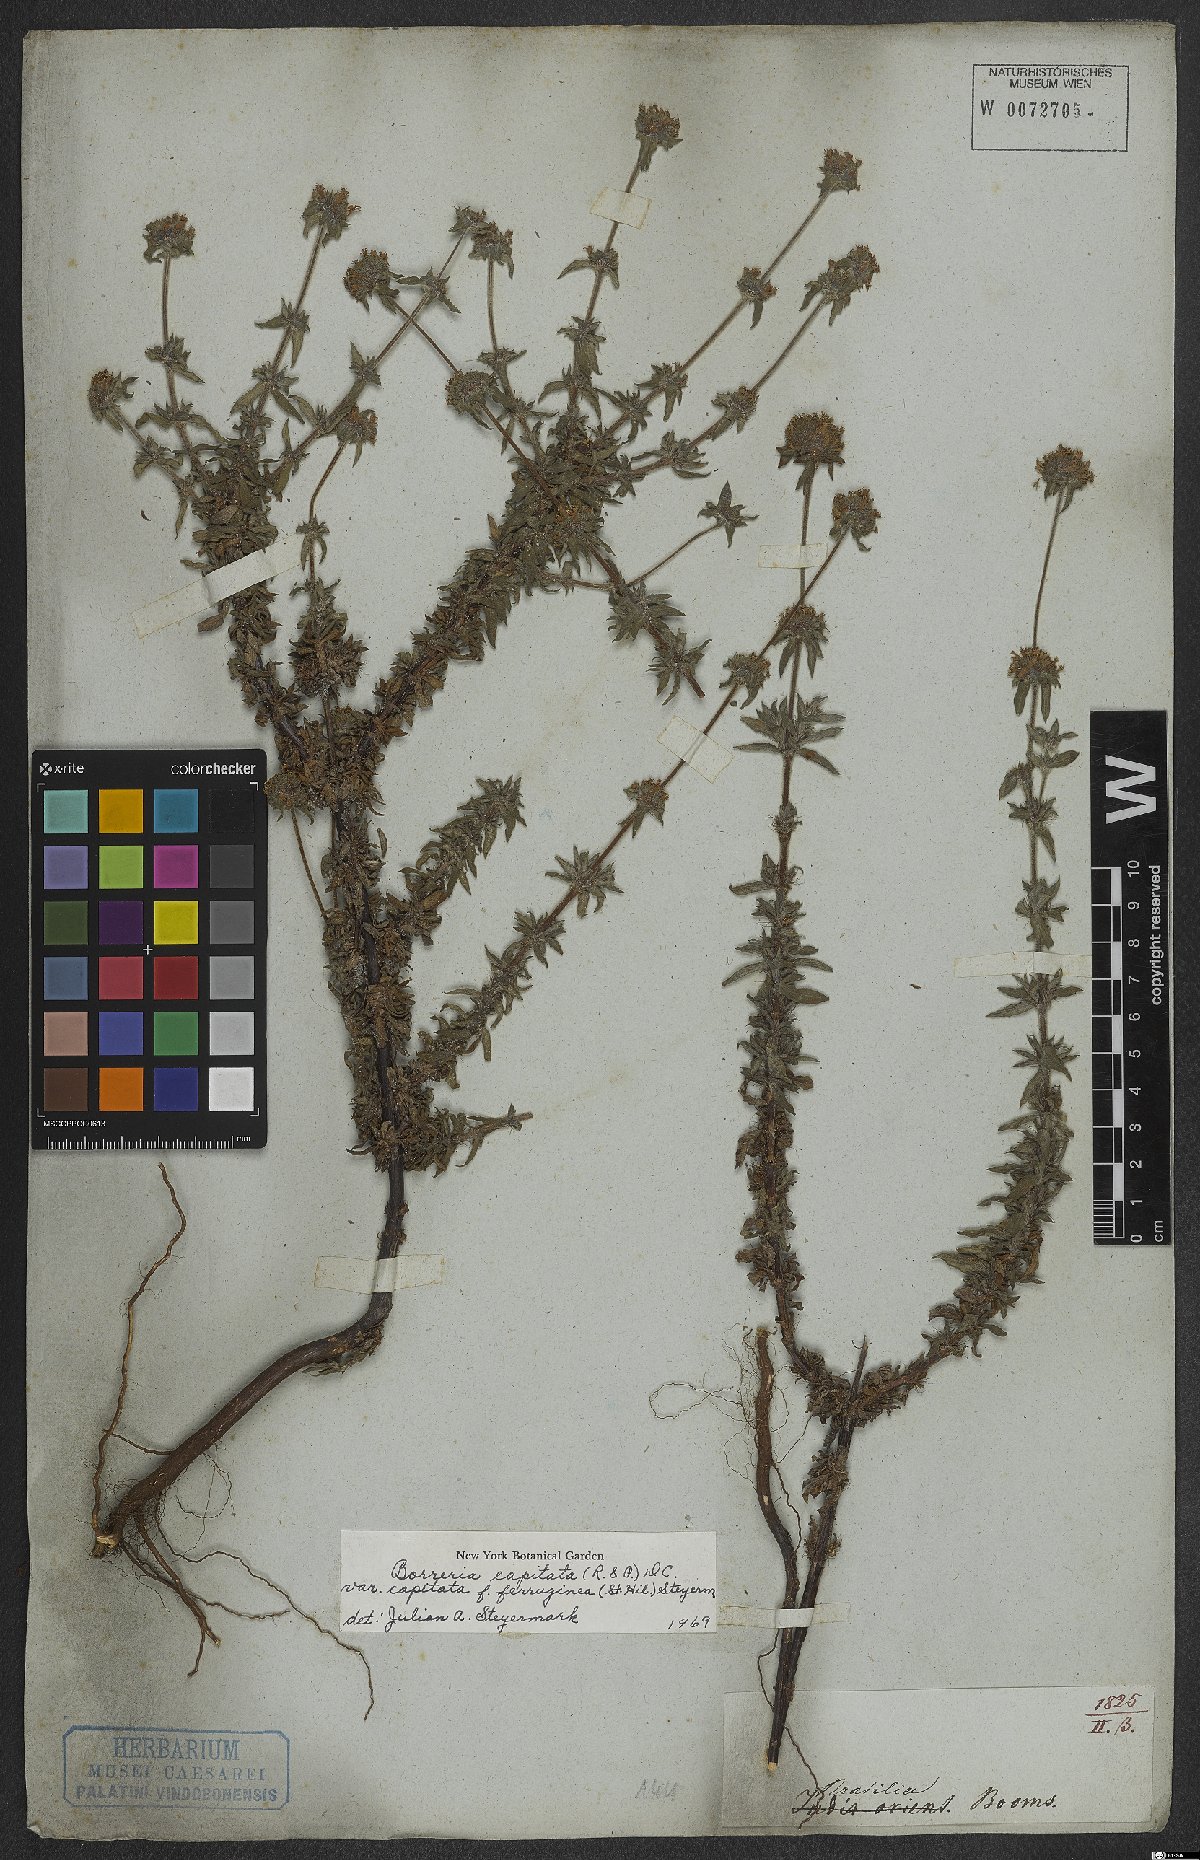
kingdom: Plantae
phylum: Tracheophyta
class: Magnoliopsida
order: Gentianales
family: Rubiaceae
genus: Spermacoce
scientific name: Spermacoce capitata
